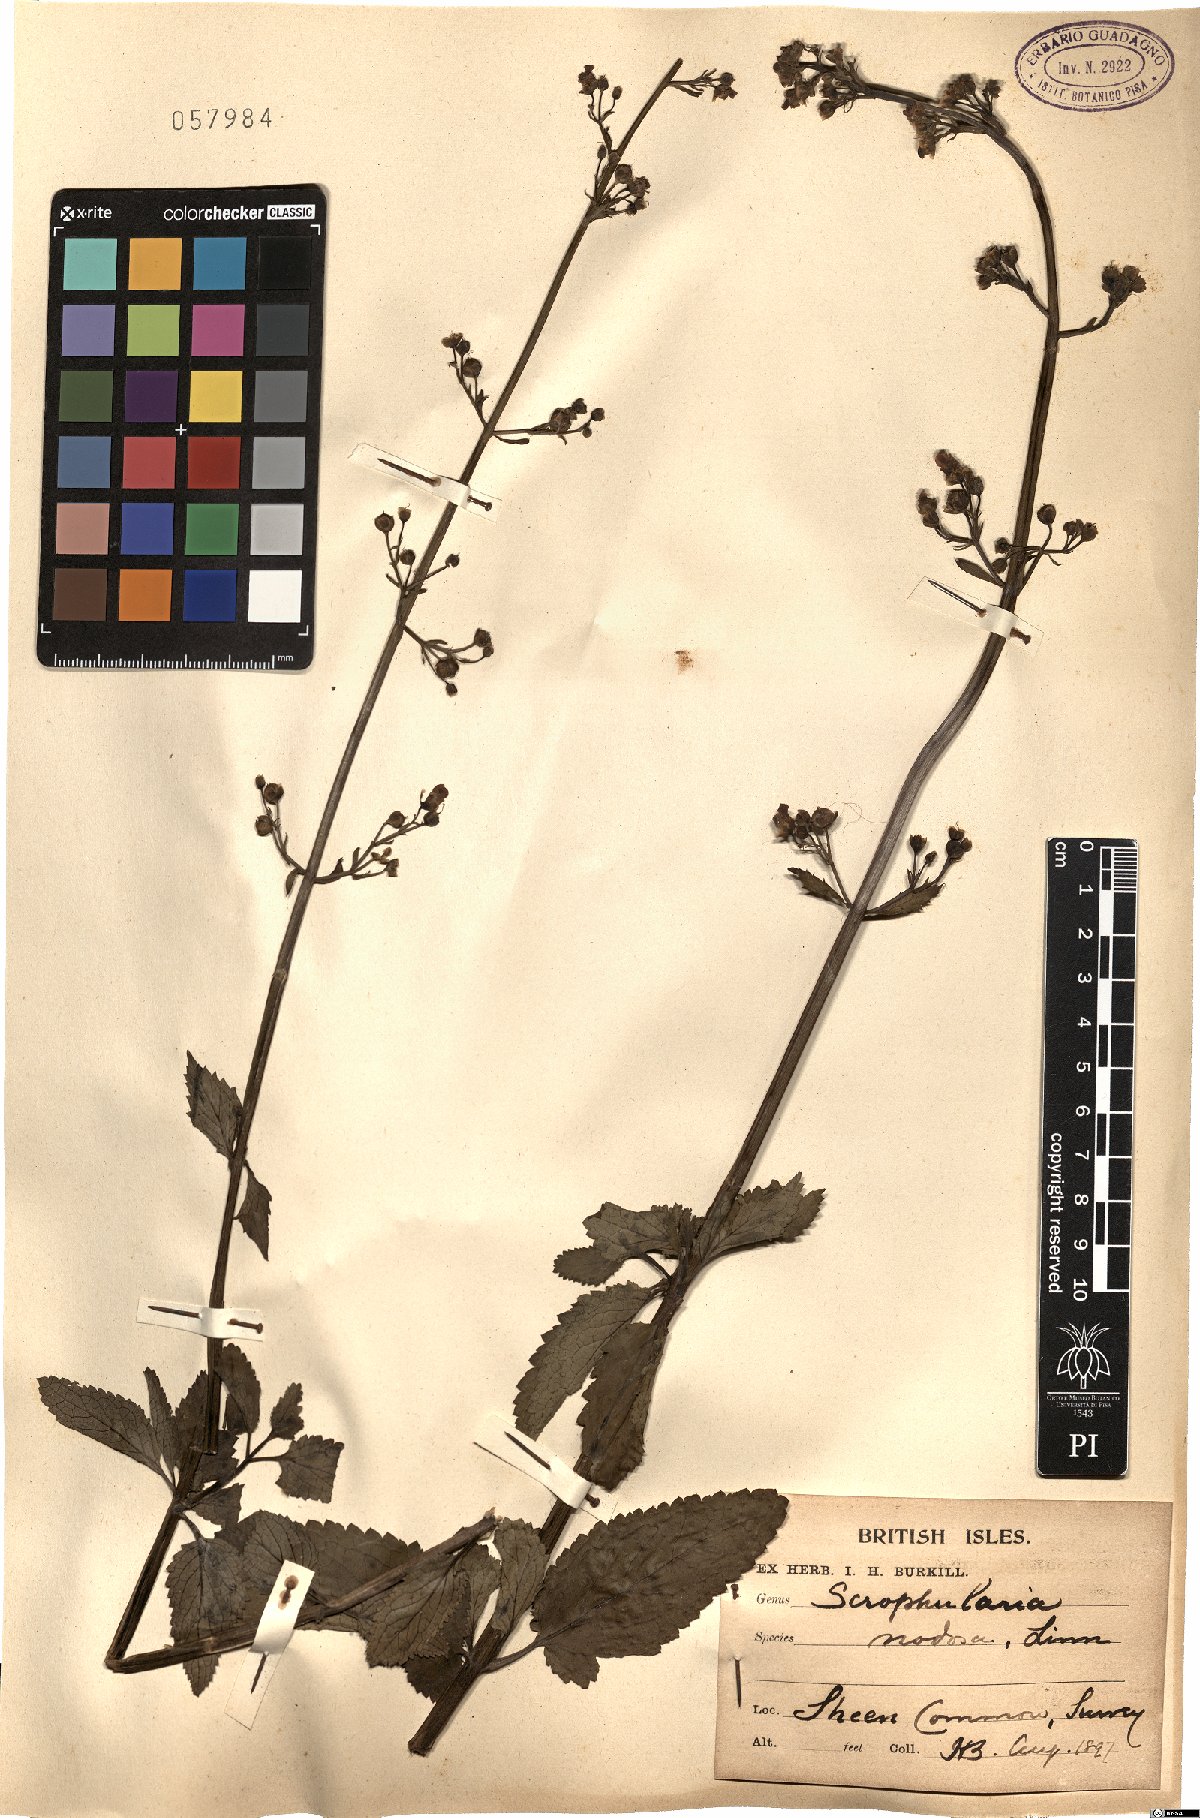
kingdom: Plantae
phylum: Tracheophyta
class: Magnoliopsida
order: Lamiales
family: Scrophulariaceae
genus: Scrophularia
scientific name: Scrophularia nodosa
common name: Common figwort
